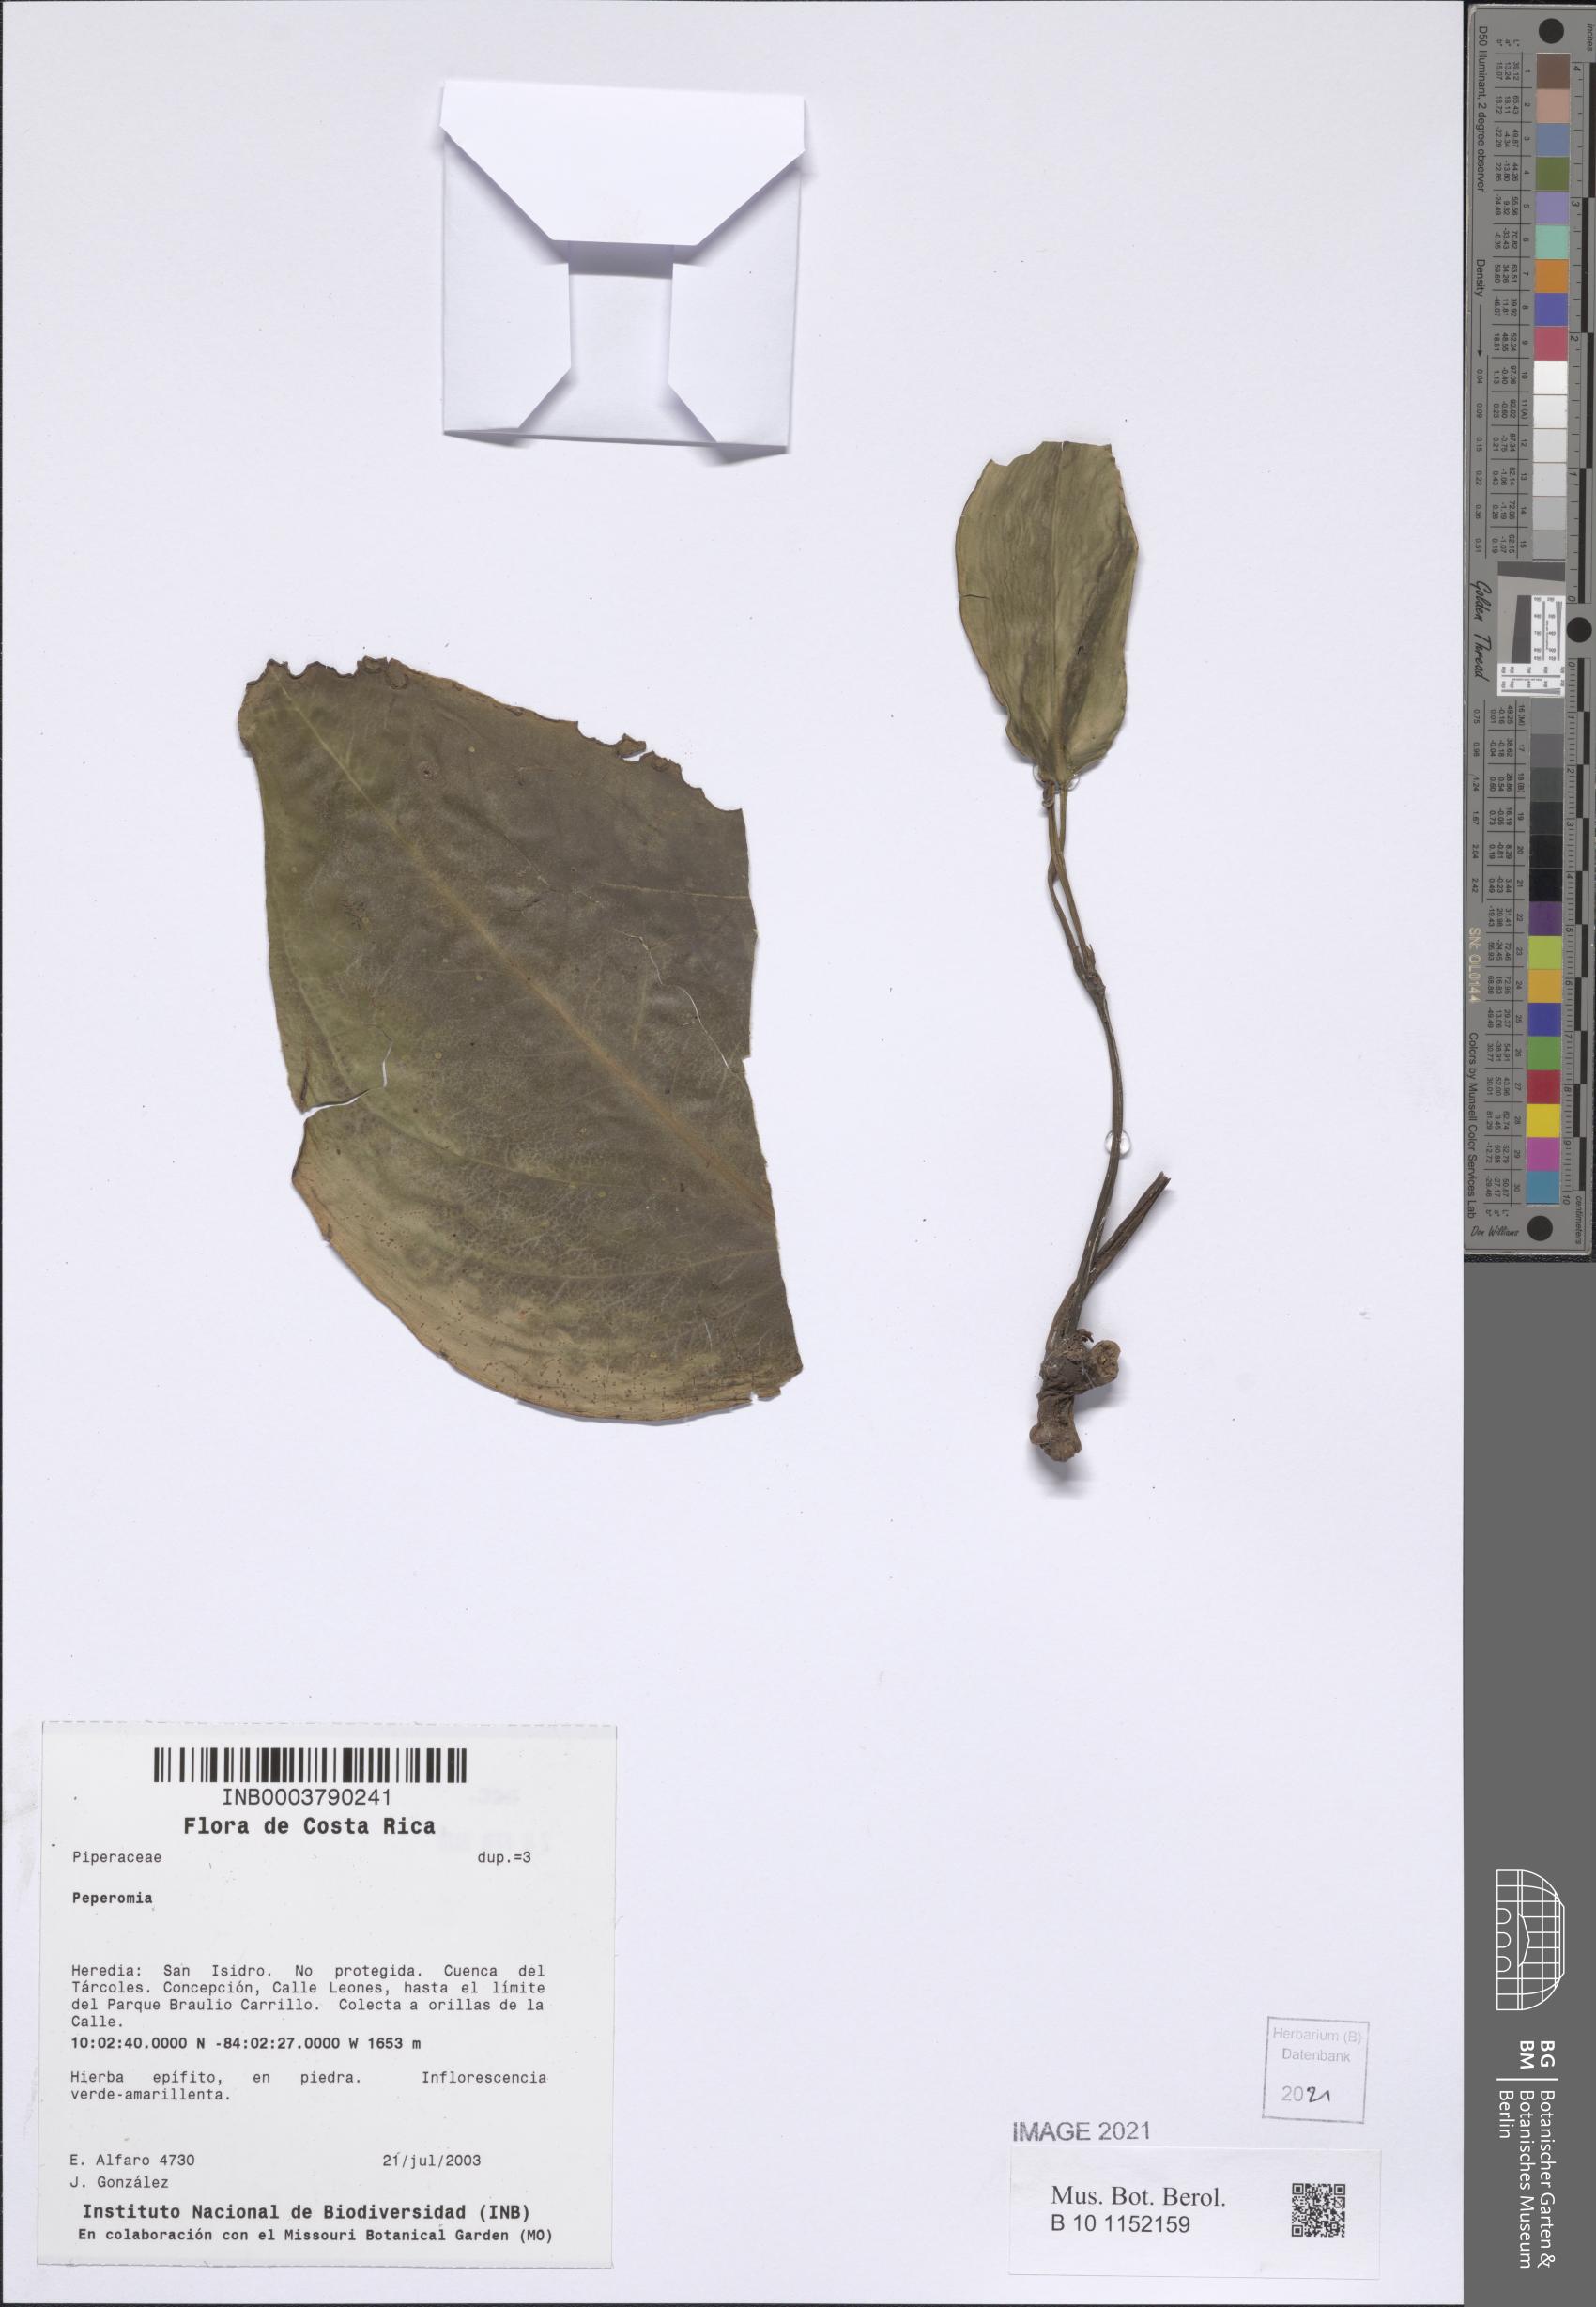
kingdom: Plantae
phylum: Tracheophyta
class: Magnoliopsida
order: Piperales
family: Piperaceae
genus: Peperomia
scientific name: Peperomia
